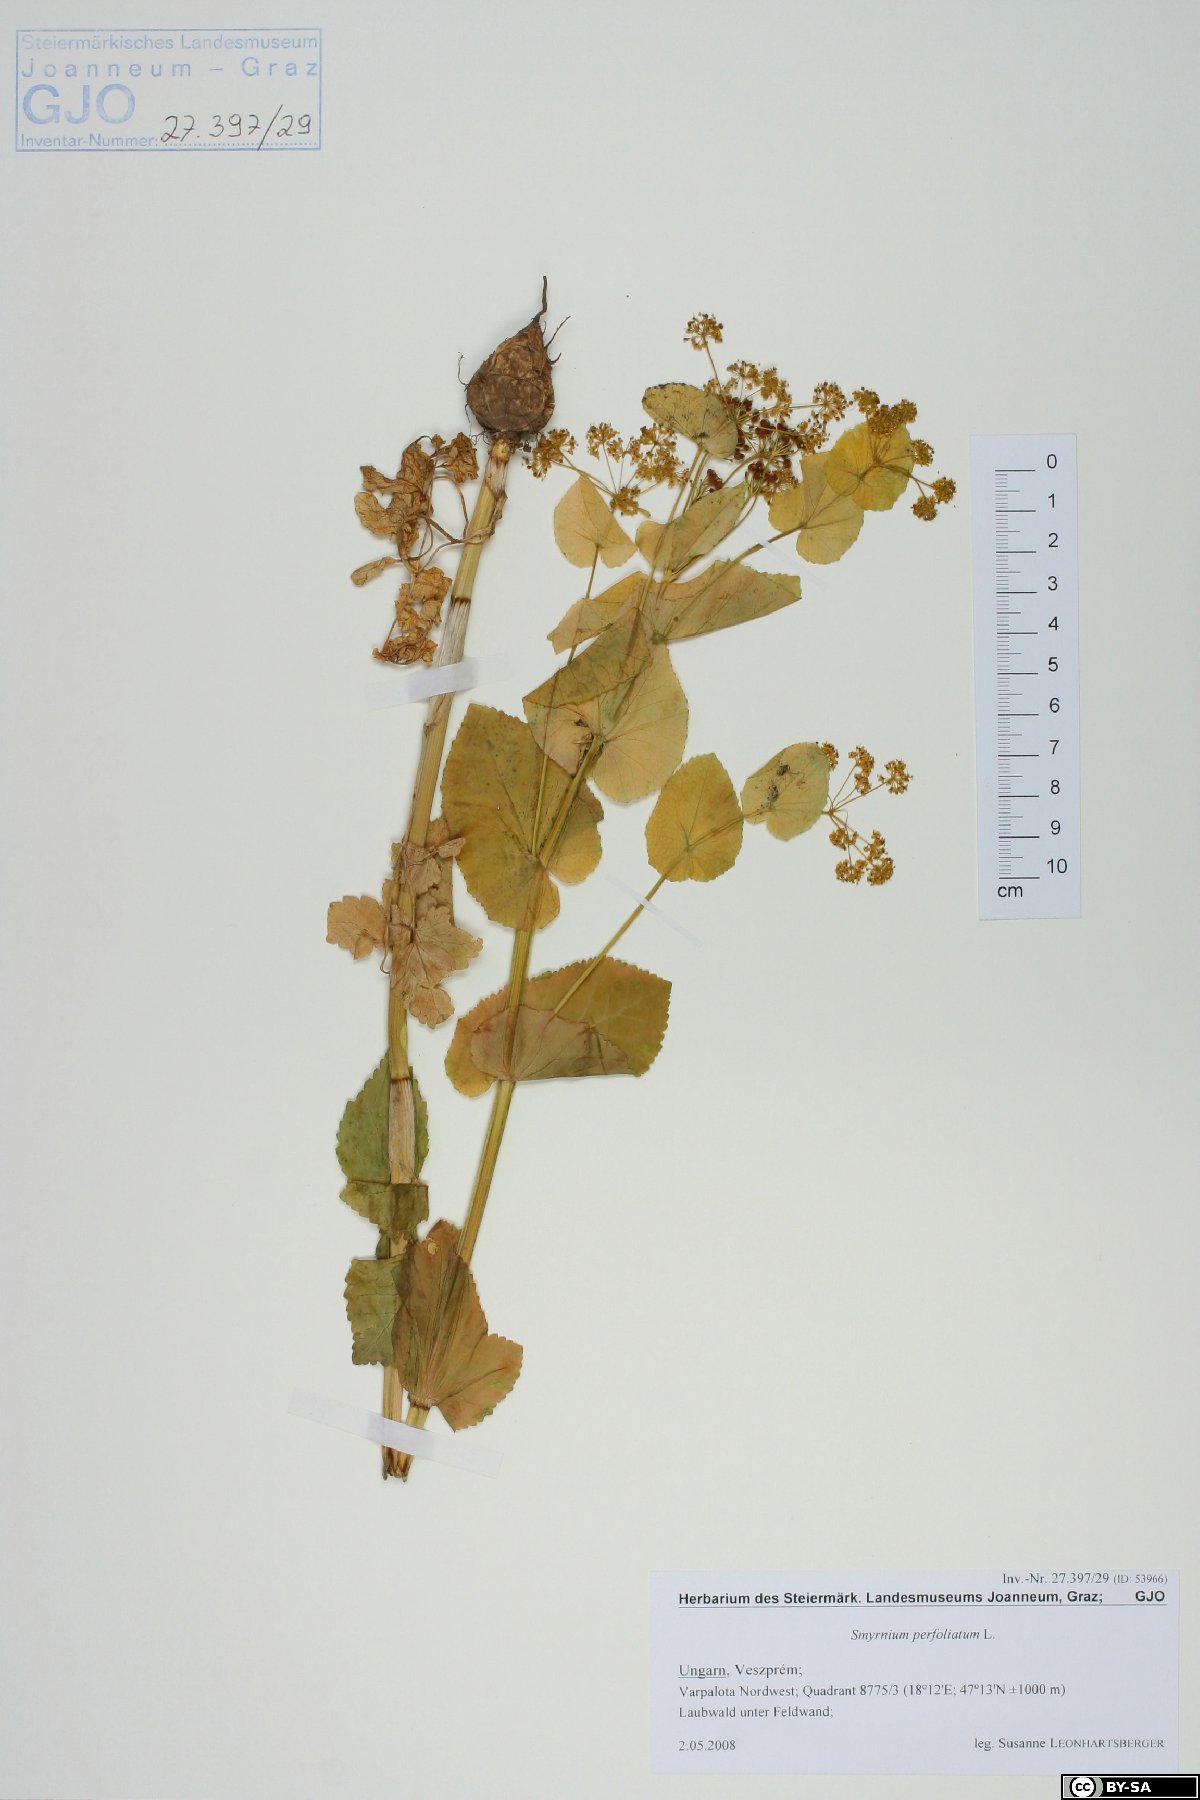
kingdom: Plantae
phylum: Tracheophyta
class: Magnoliopsida
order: Apiales
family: Apiaceae
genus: Smyrnium
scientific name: Smyrnium perfoliatum
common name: Perfoliate alexanders
